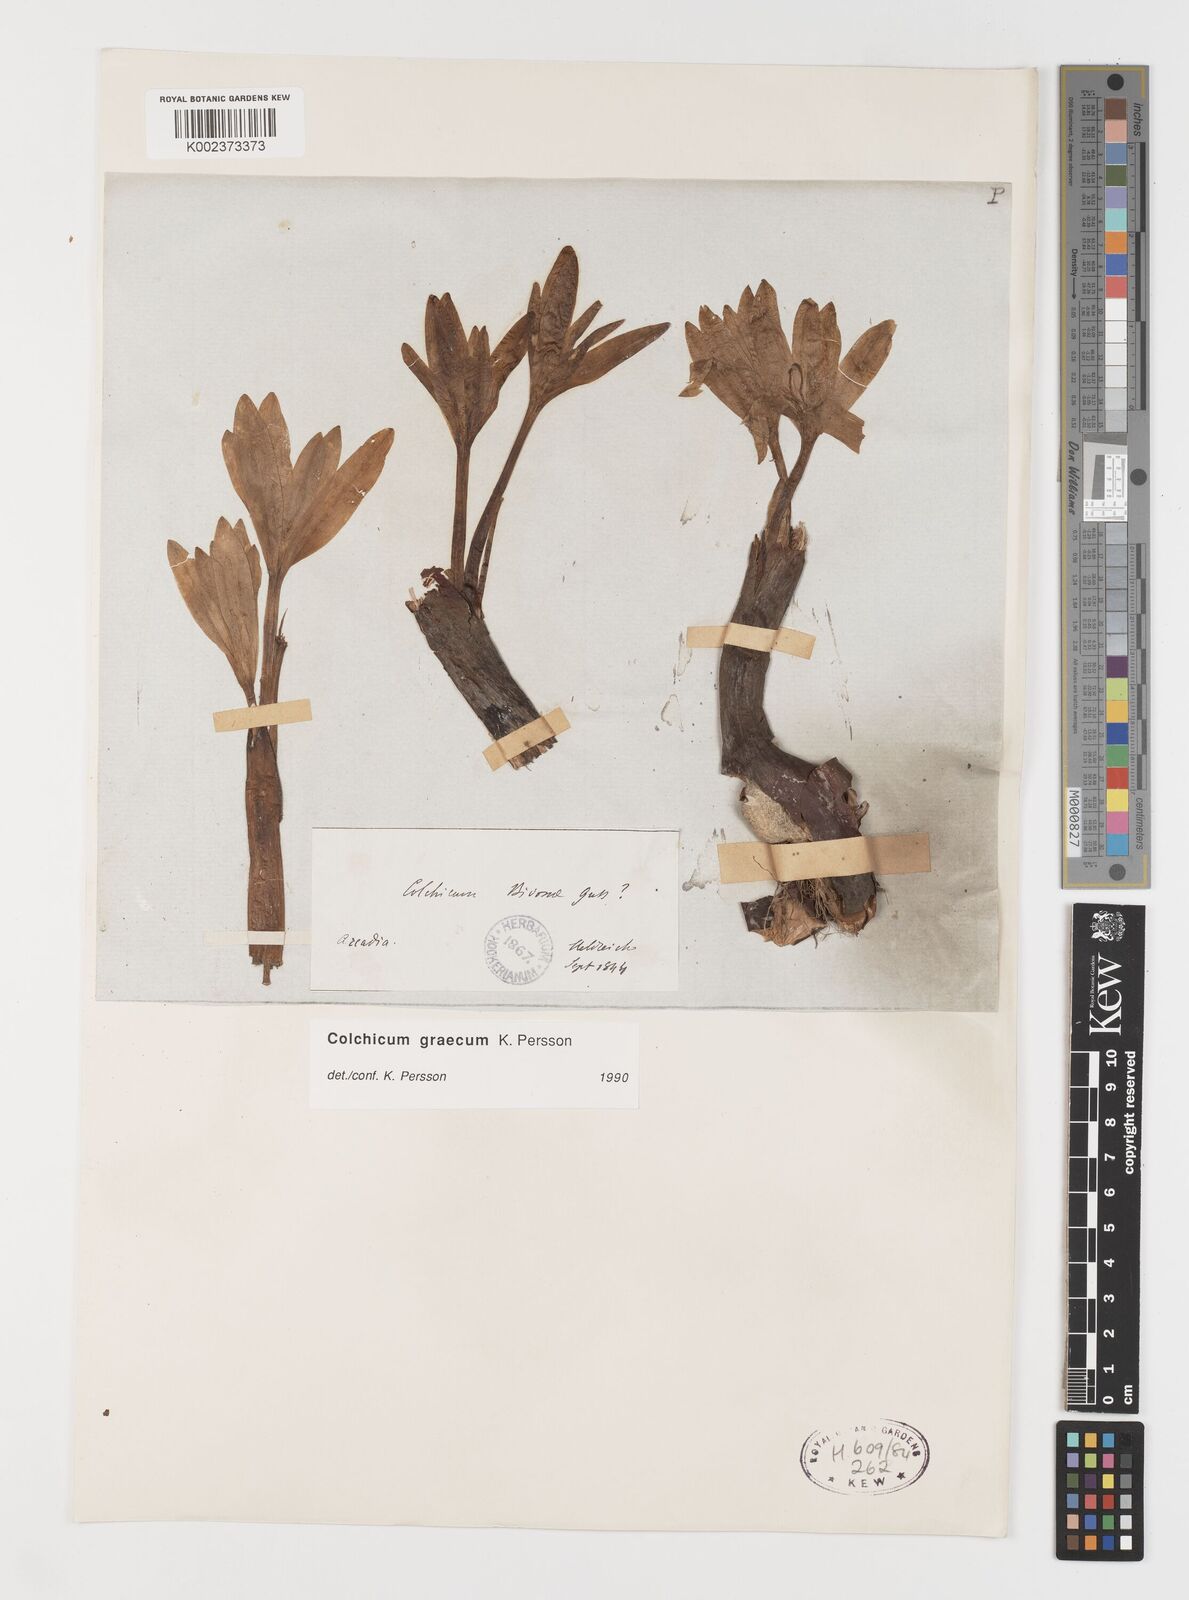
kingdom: Plantae
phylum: Tracheophyta
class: Liliopsida
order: Liliales
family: Colchicaceae
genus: Colchicum
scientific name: Colchicum graecum
